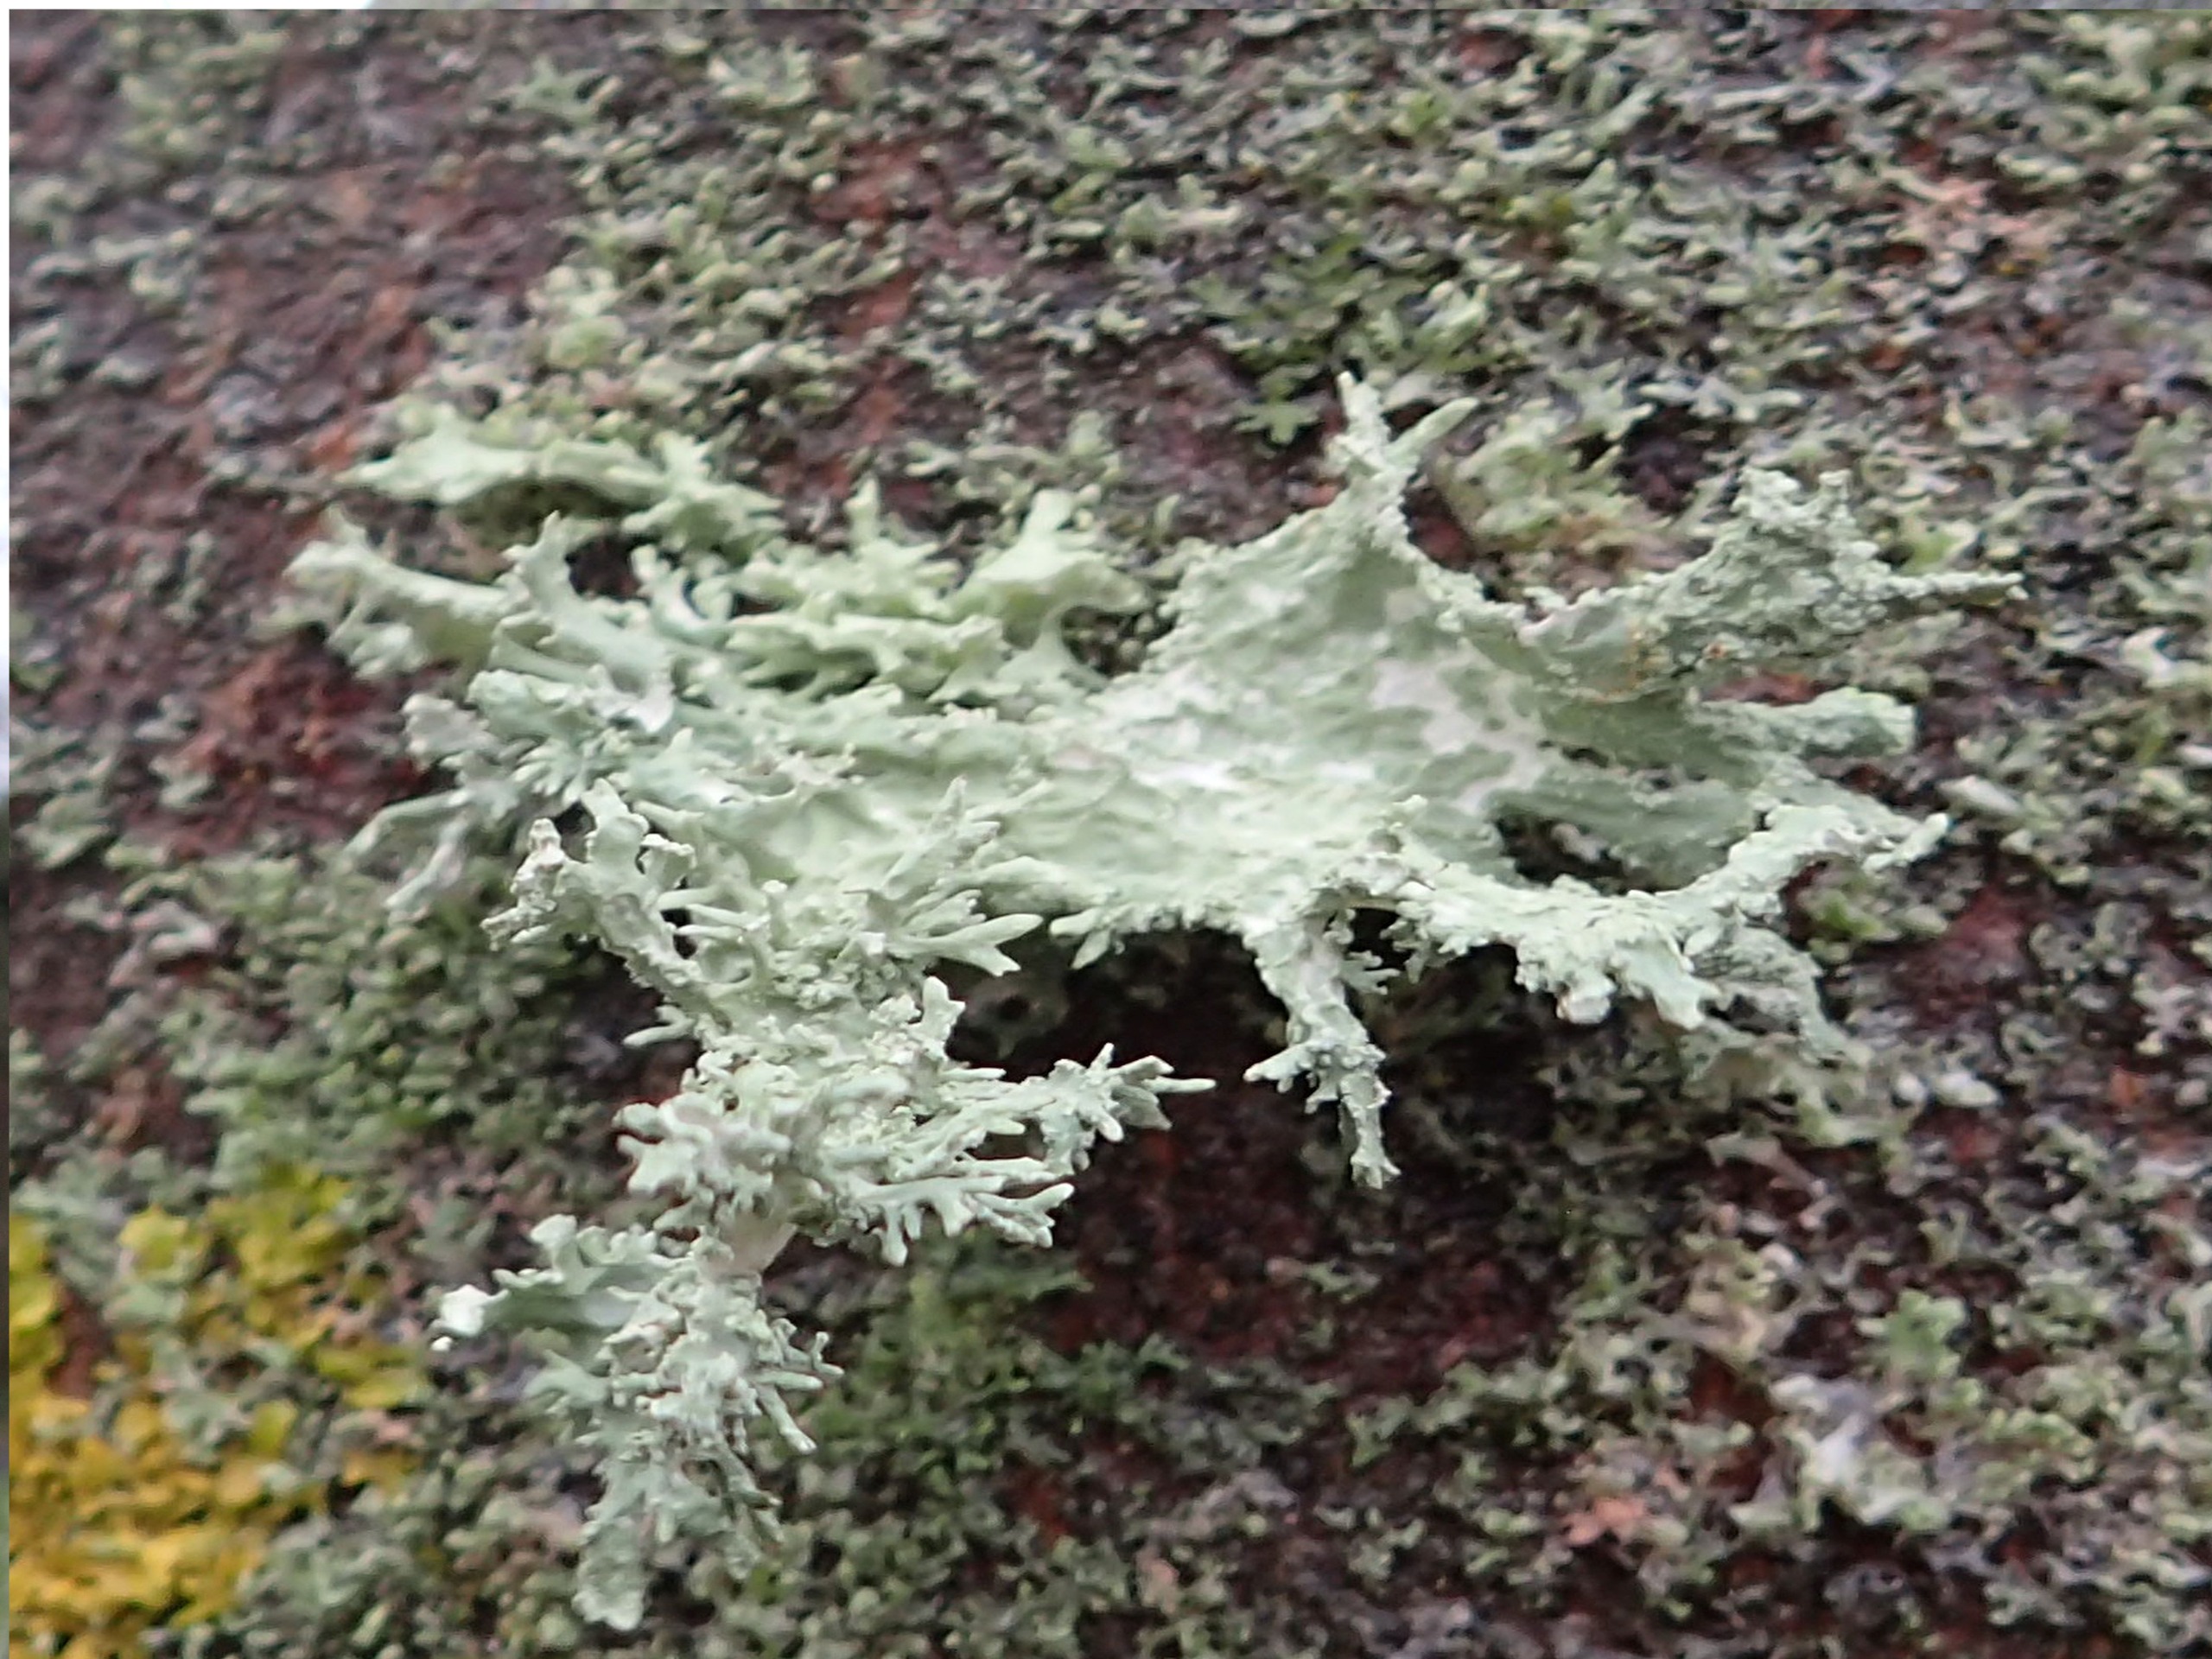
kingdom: Fungi
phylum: Ascomycota
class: Lecanoromycetes
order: Lecanorales
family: Parmeliaceae
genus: Evernia
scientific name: Evernia prunastri
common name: Almindelig slåenlav
